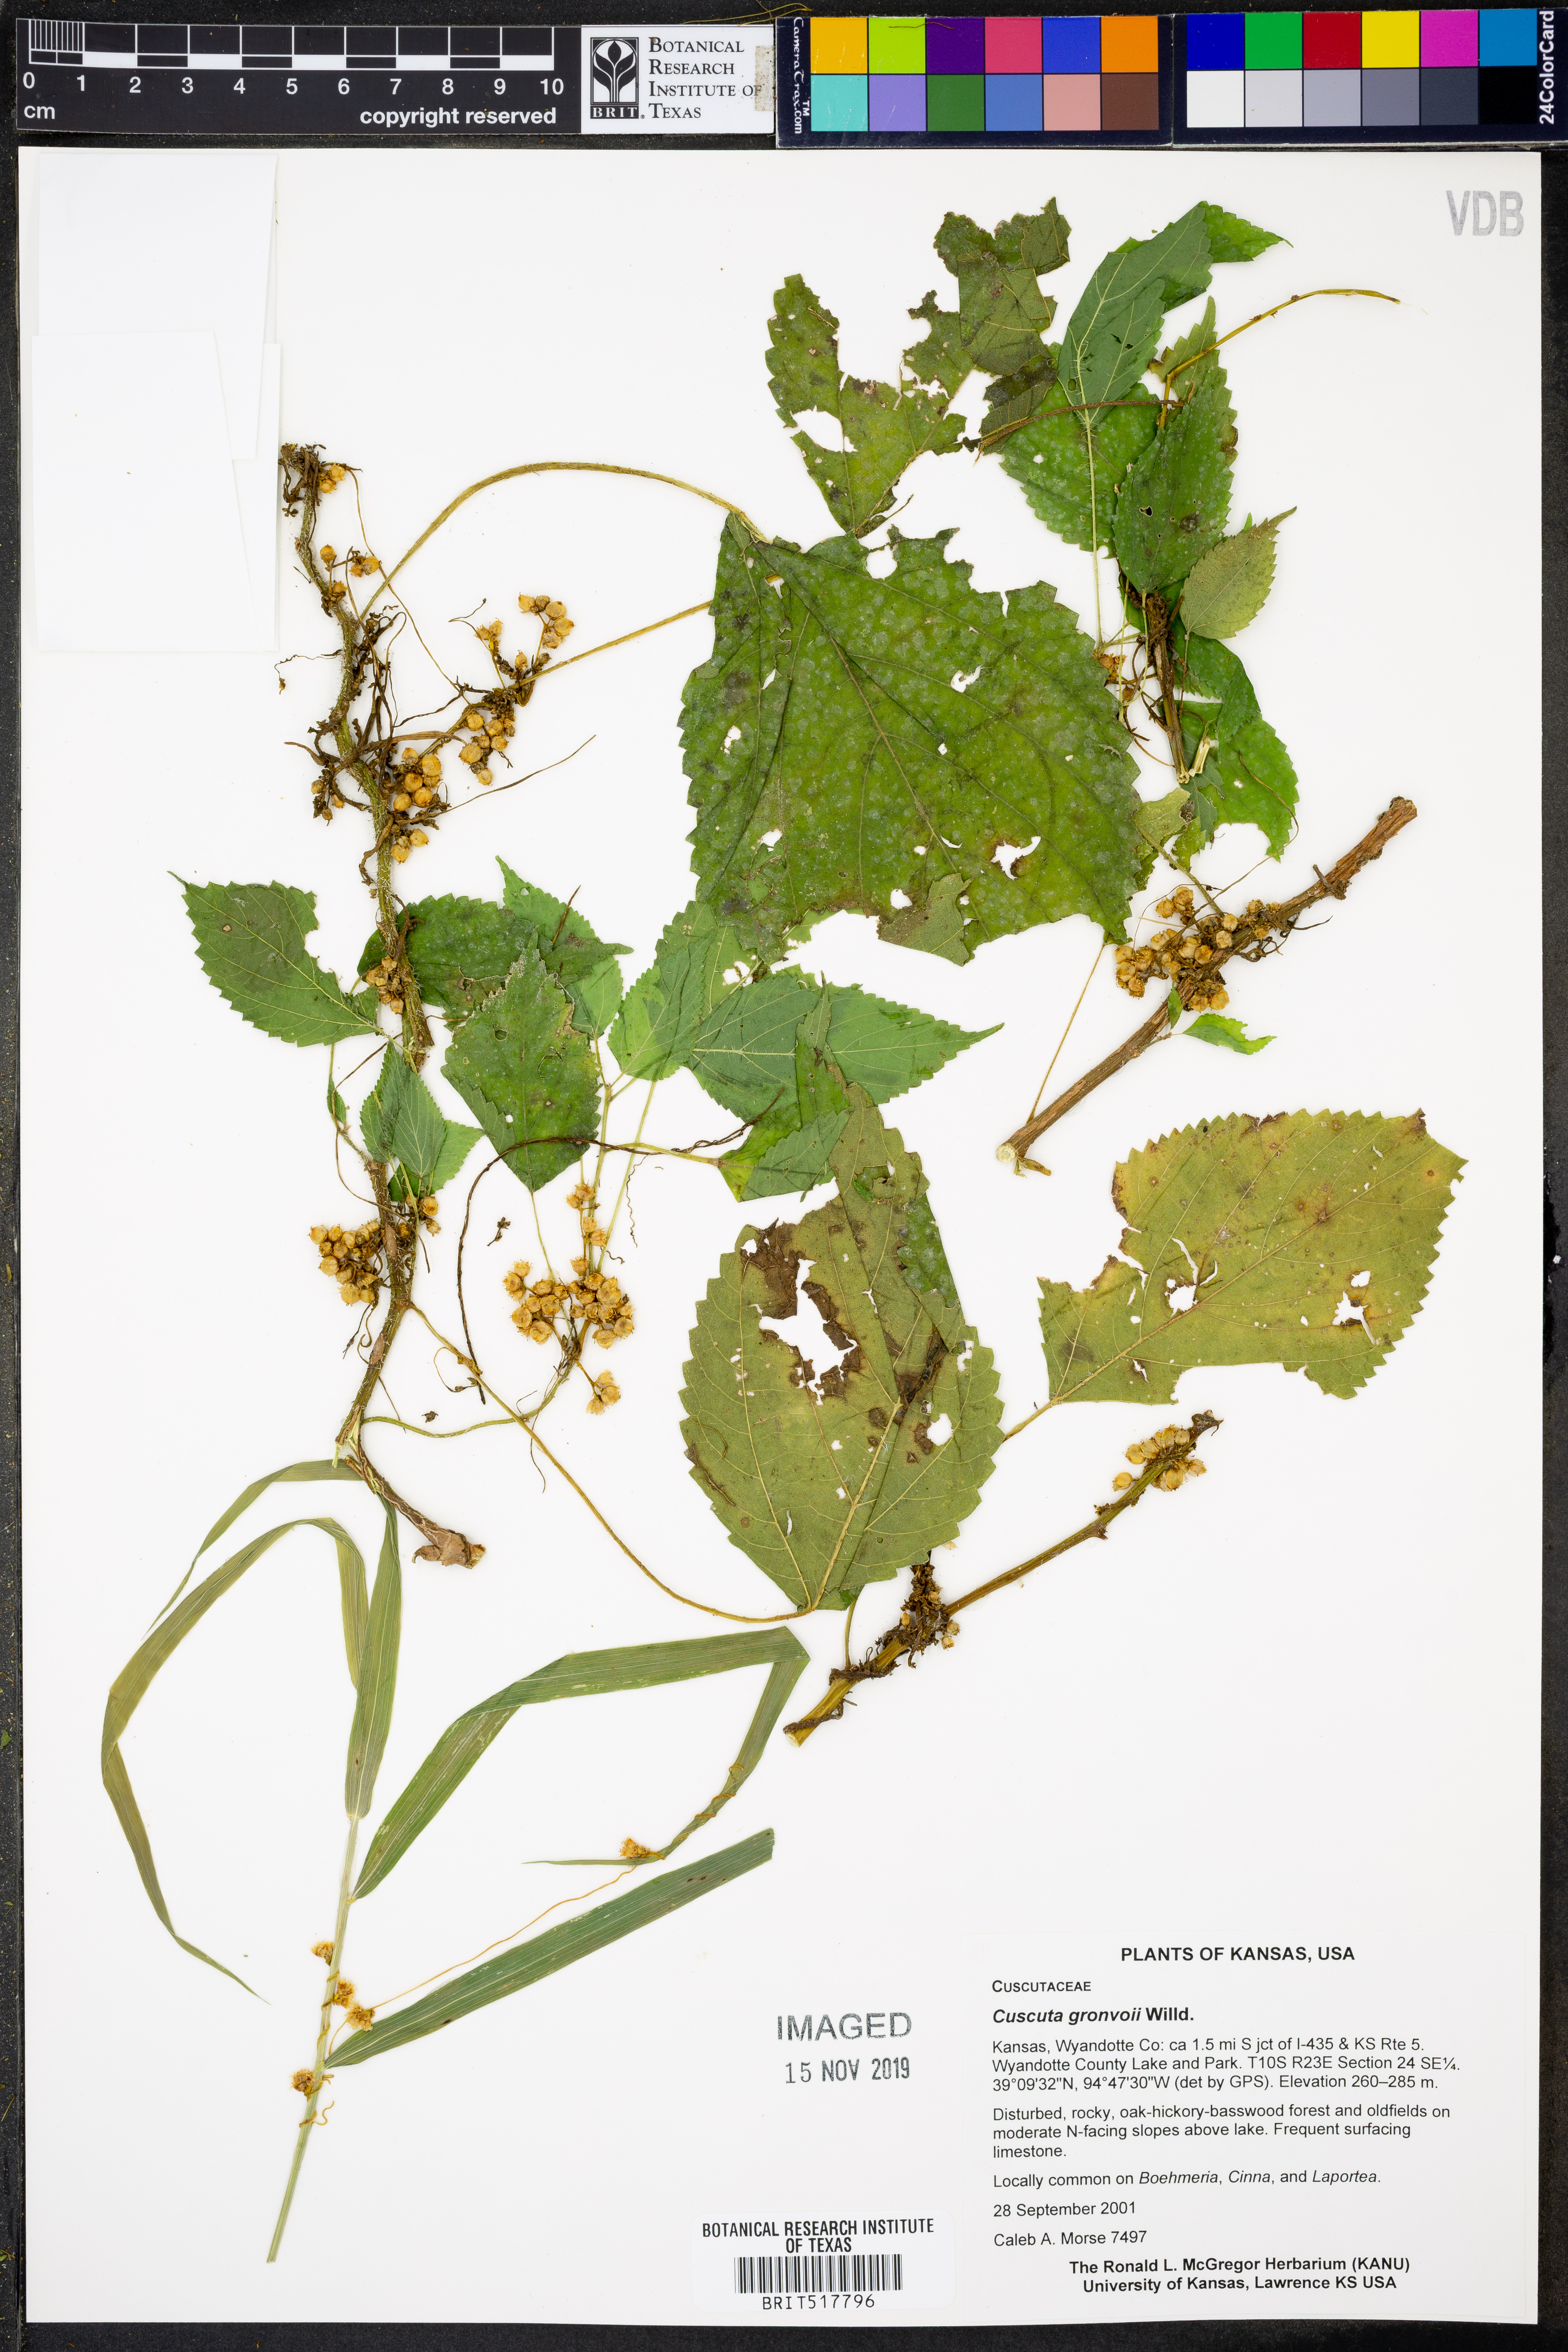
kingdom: Plantae
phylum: Tracheophyta
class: Magnoliopsida
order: Solanales
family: Convolvulaceae
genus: Cuscuta
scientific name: Cuscuta gronovii
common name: Common dodder
